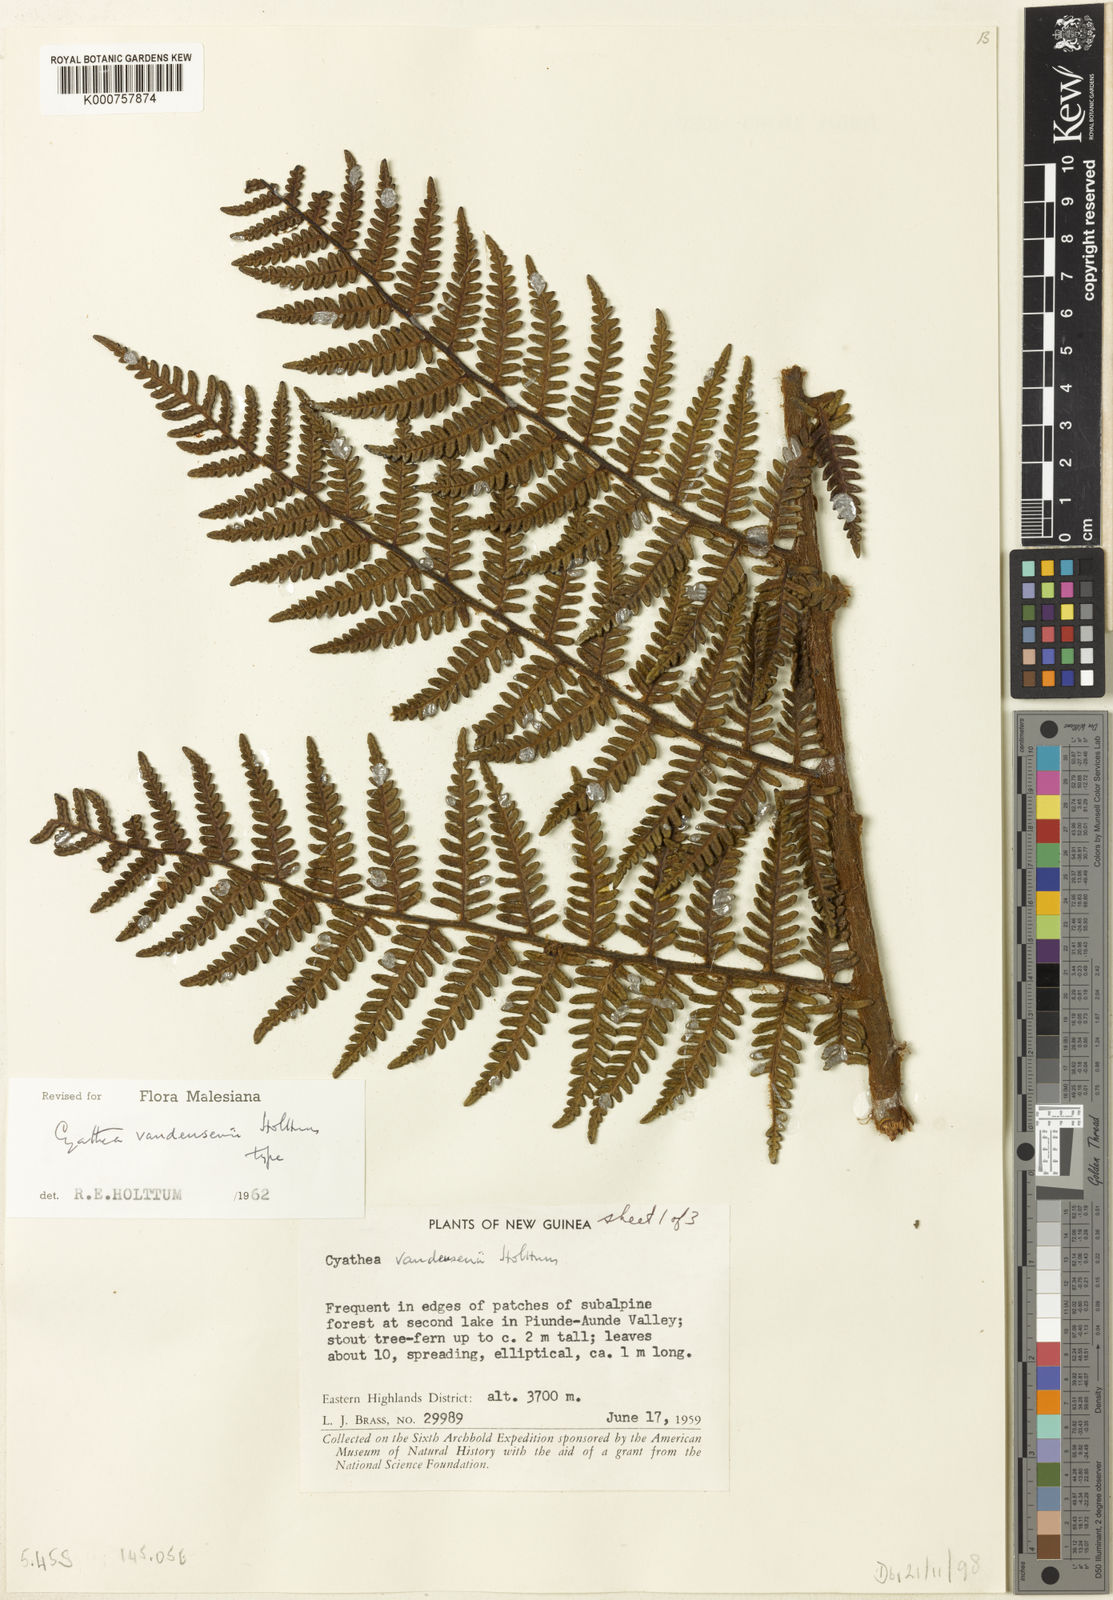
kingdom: Plantae
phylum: Tracheophyta
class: Polypodiopsida
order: Cyatheales
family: Cyatheaceae
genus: Alsophila
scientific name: Alsophila vandeusenii
